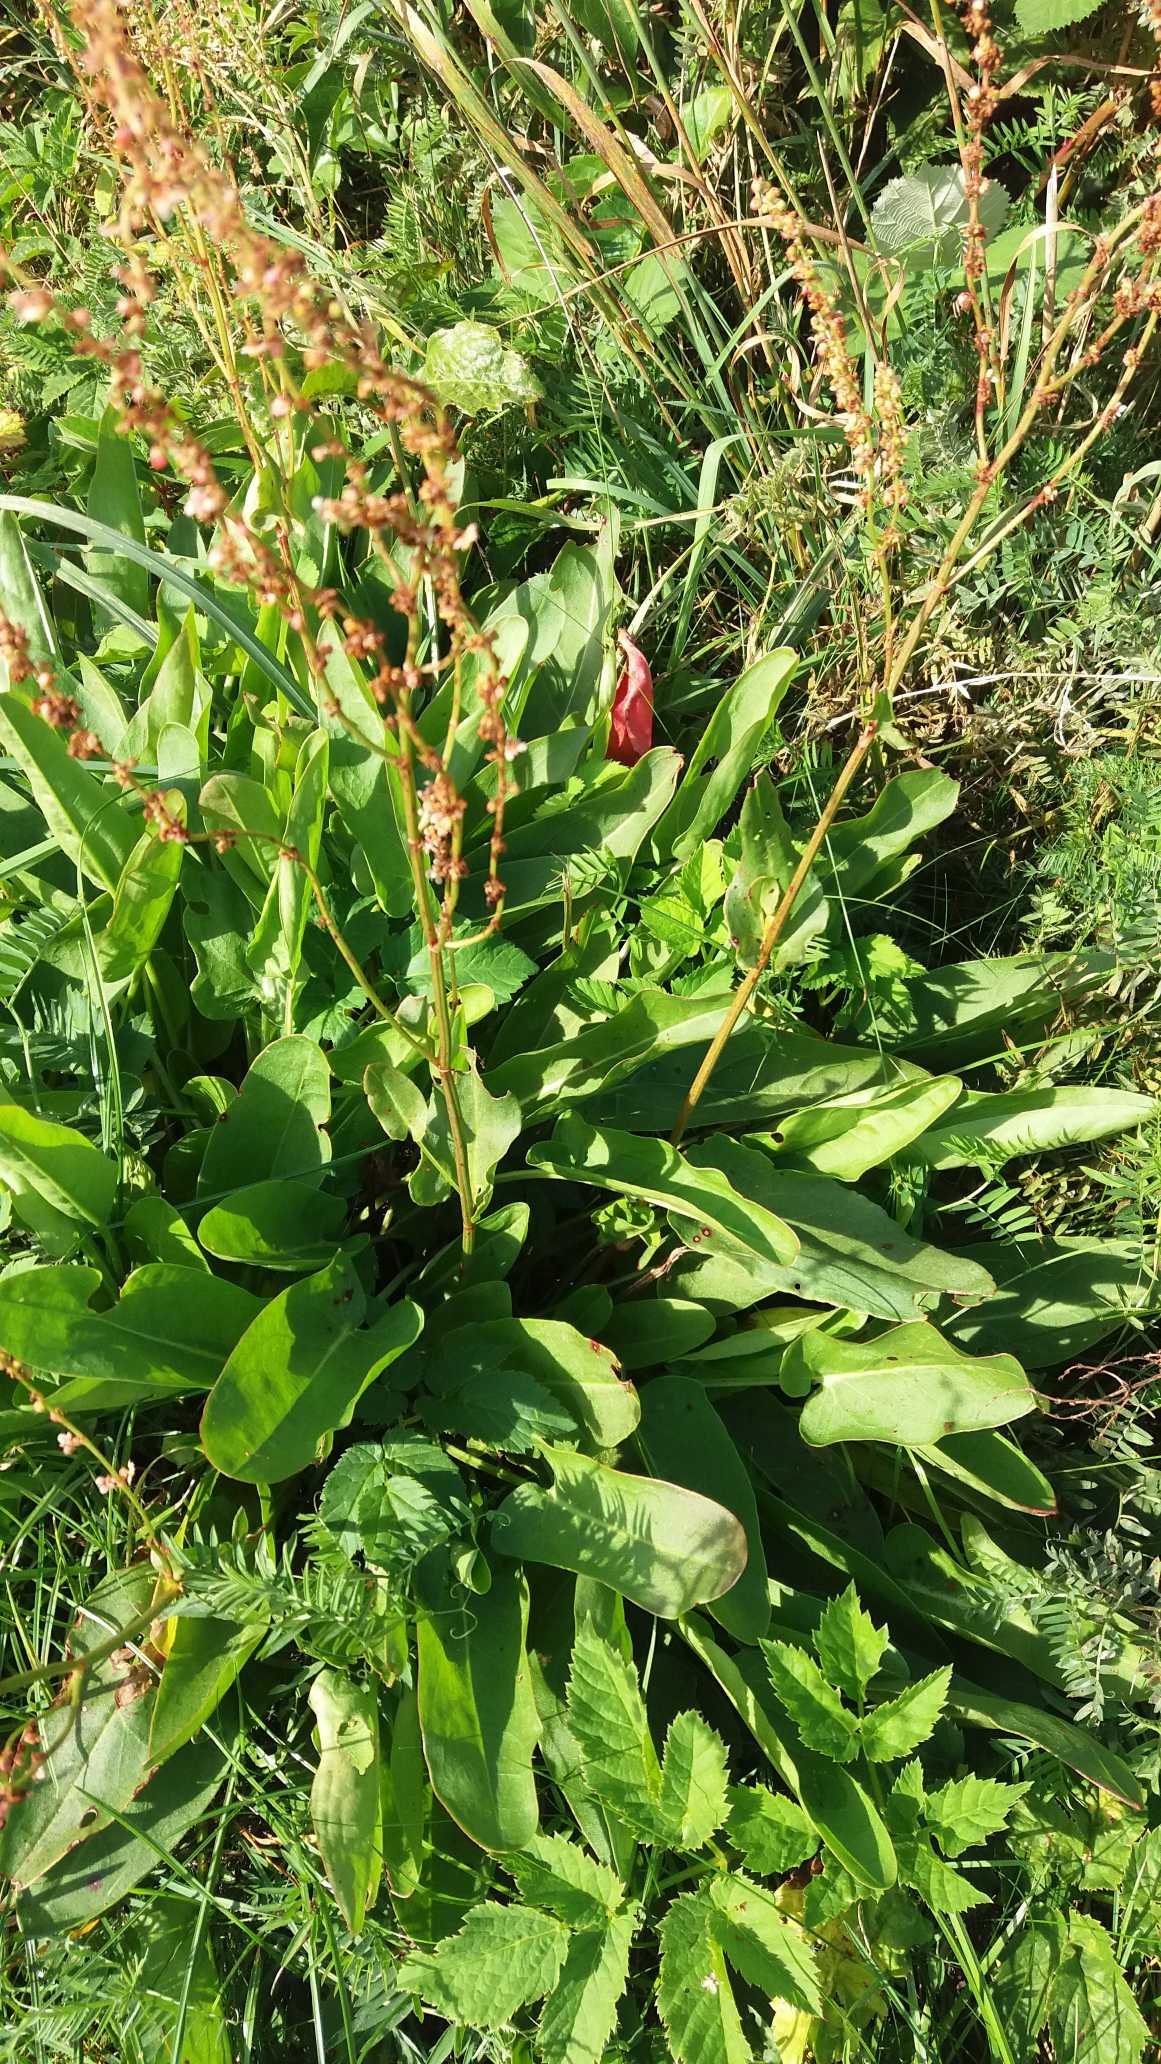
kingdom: Plantae
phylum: Tracheophyta
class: Magnoliopsida
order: Caryophyllales
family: Polygonaceae
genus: Rumex
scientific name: Rumex acetosa
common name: Almindelig syre
